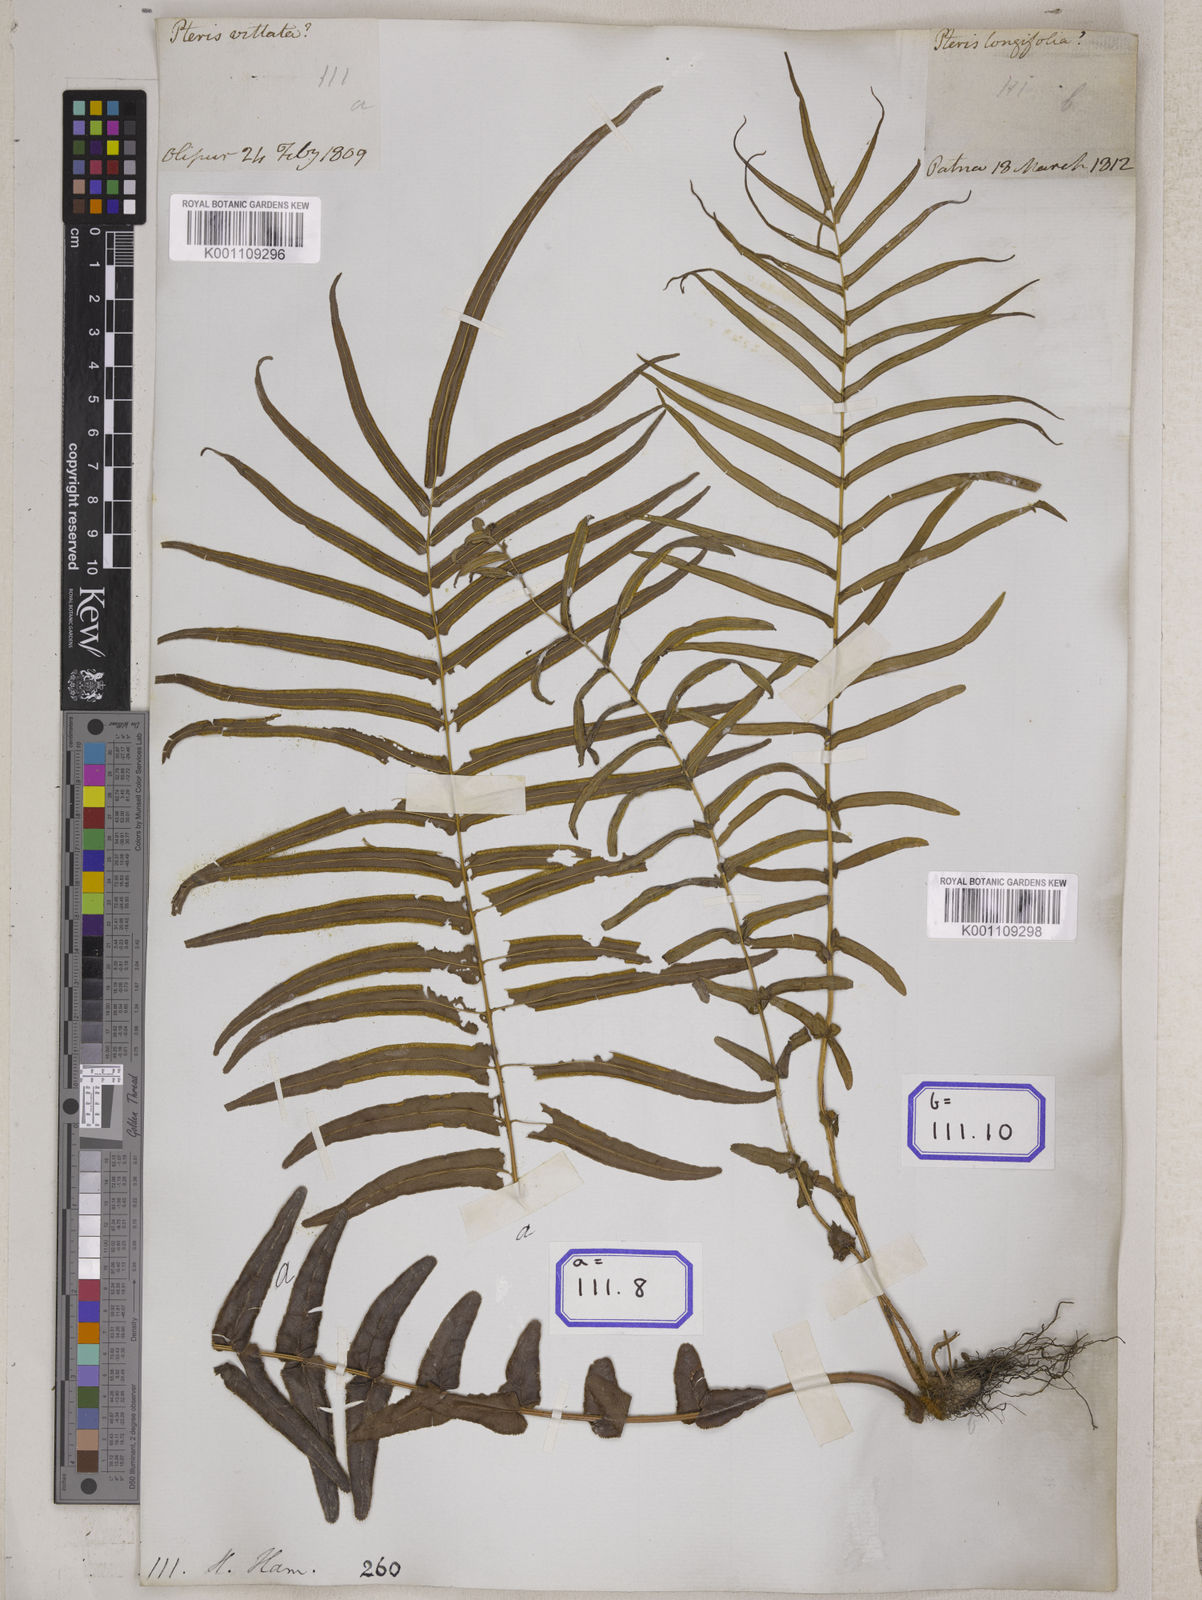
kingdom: Plantae
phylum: Tracheophyta
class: Polypodiopsida
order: Polypodiales
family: Pteridaceae
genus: Pteris
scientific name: Pteris longifolia
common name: Longleaf brake
